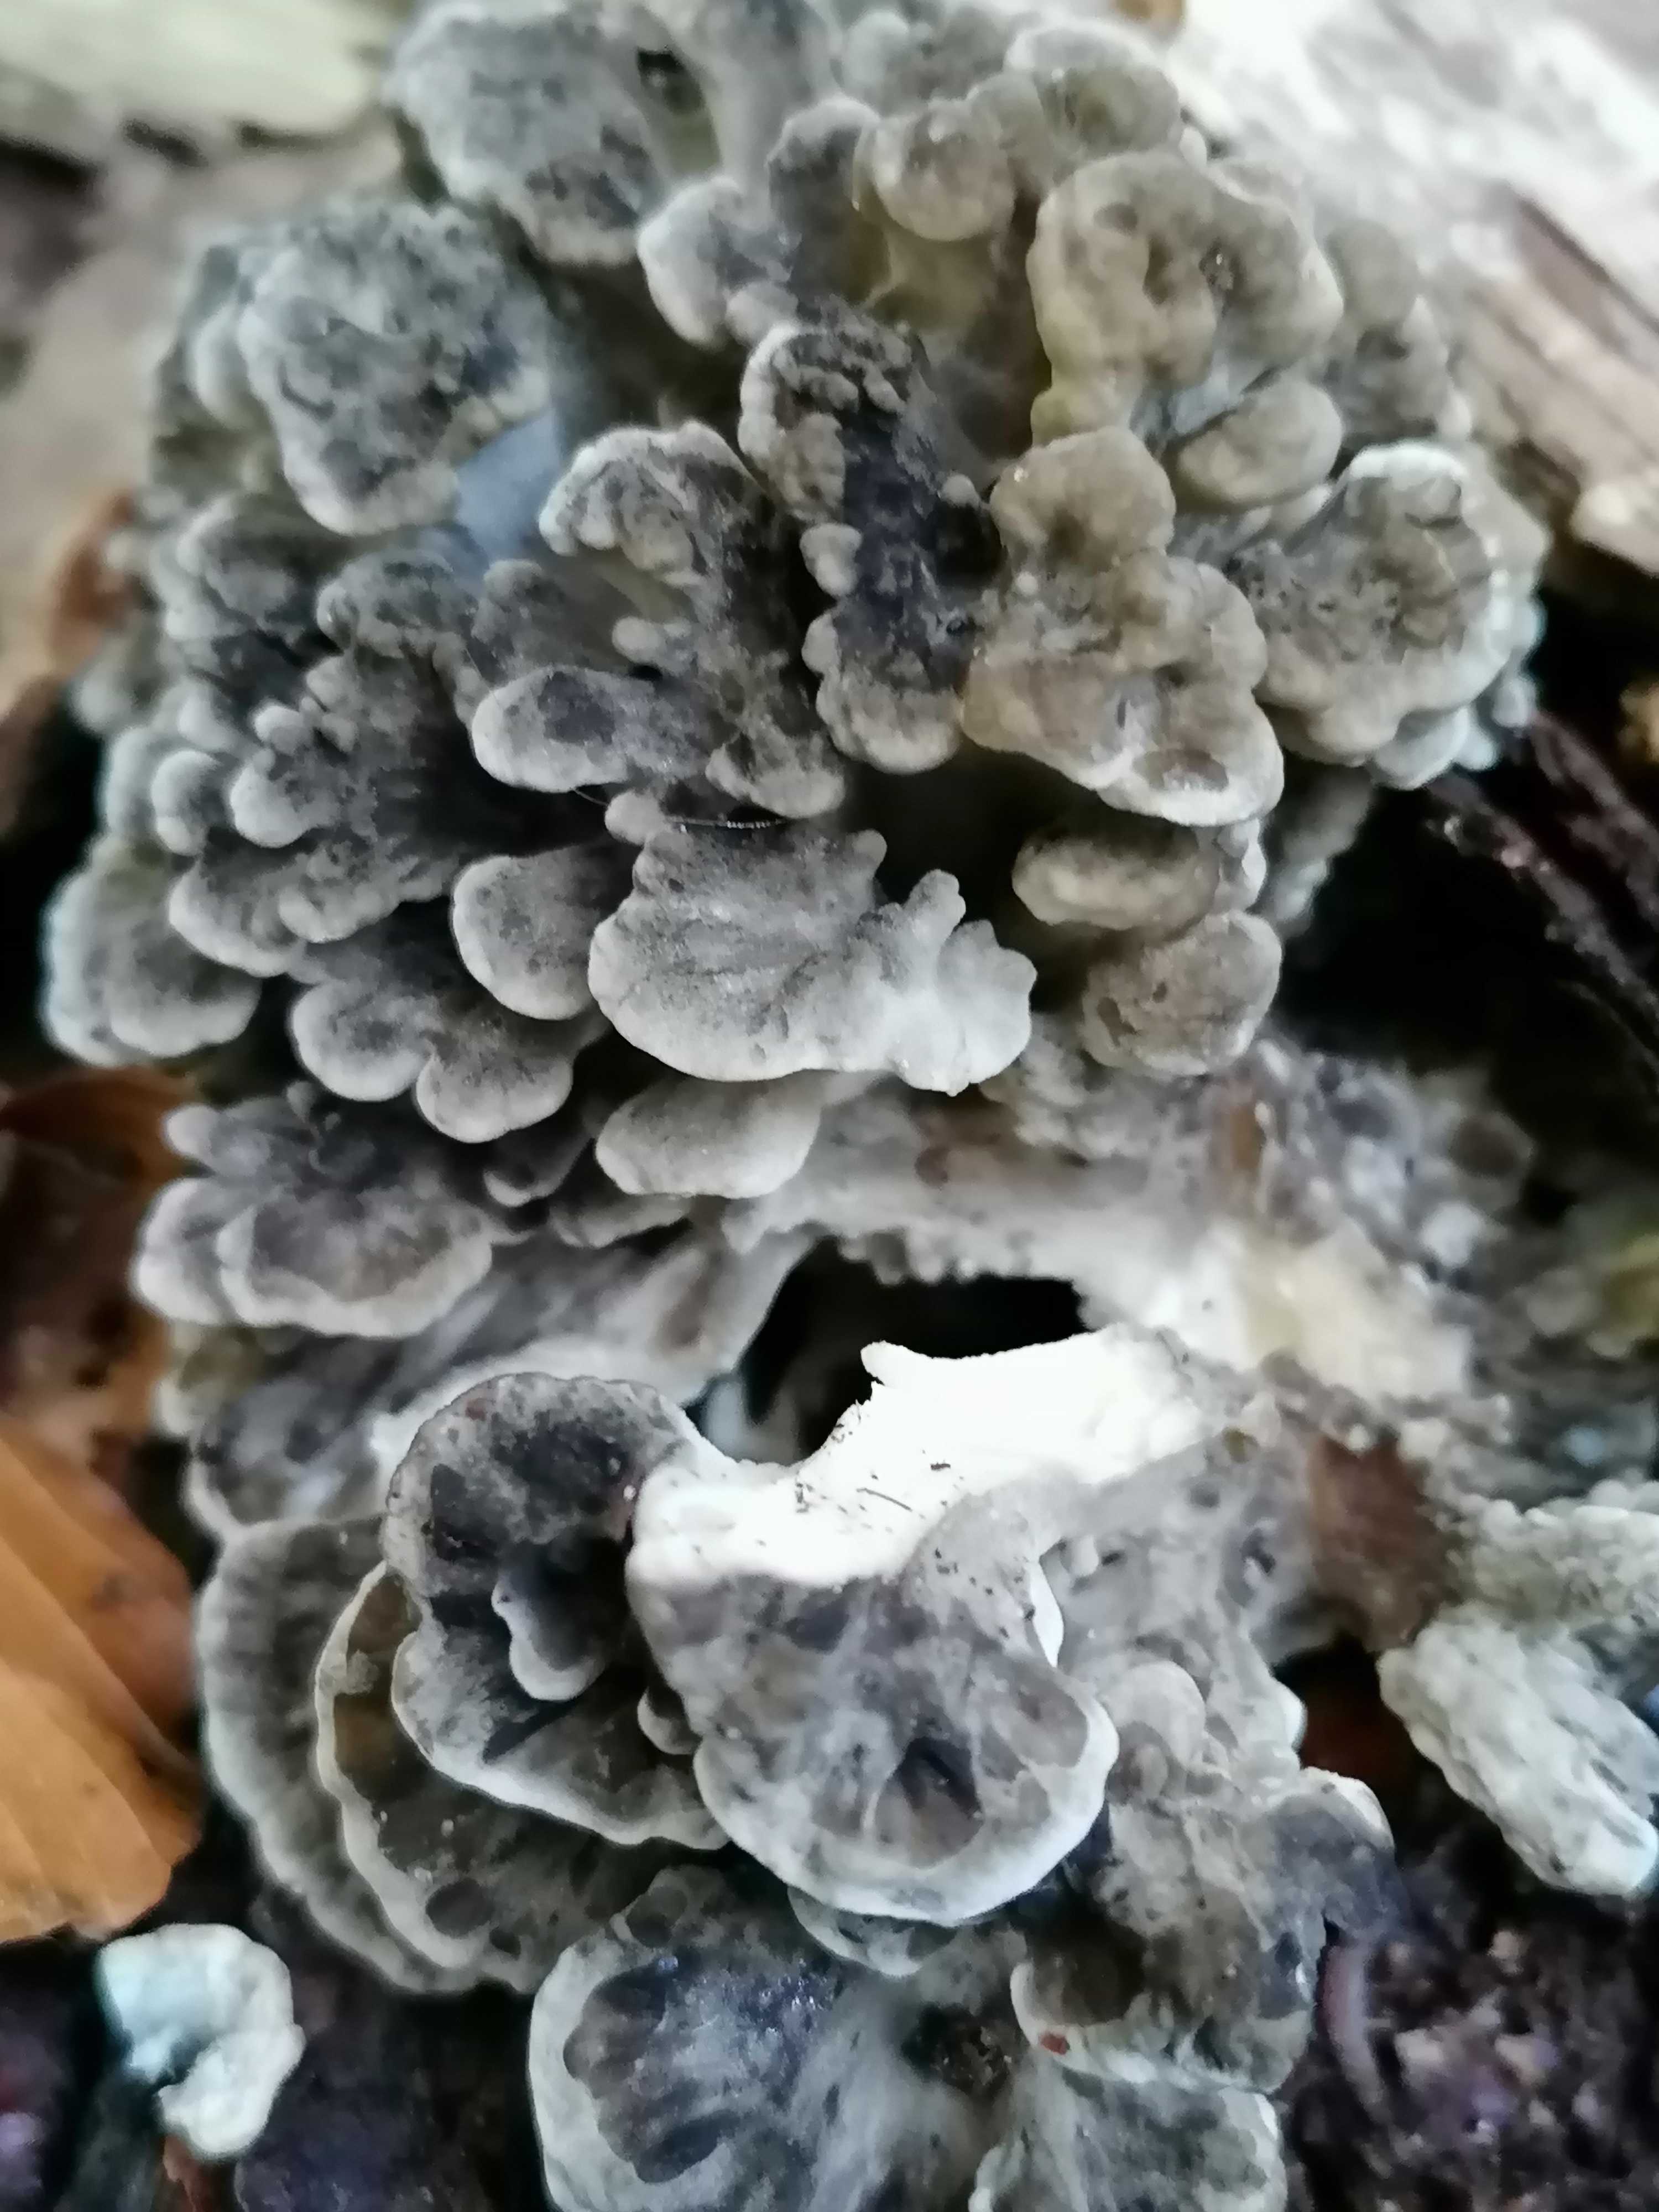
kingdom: Fungi
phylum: Basidiomycota
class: Agaricomycetes
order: Polyporales
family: Grifolaceae
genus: Grifola
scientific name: Grifola frondosa
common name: tueporesvamp
